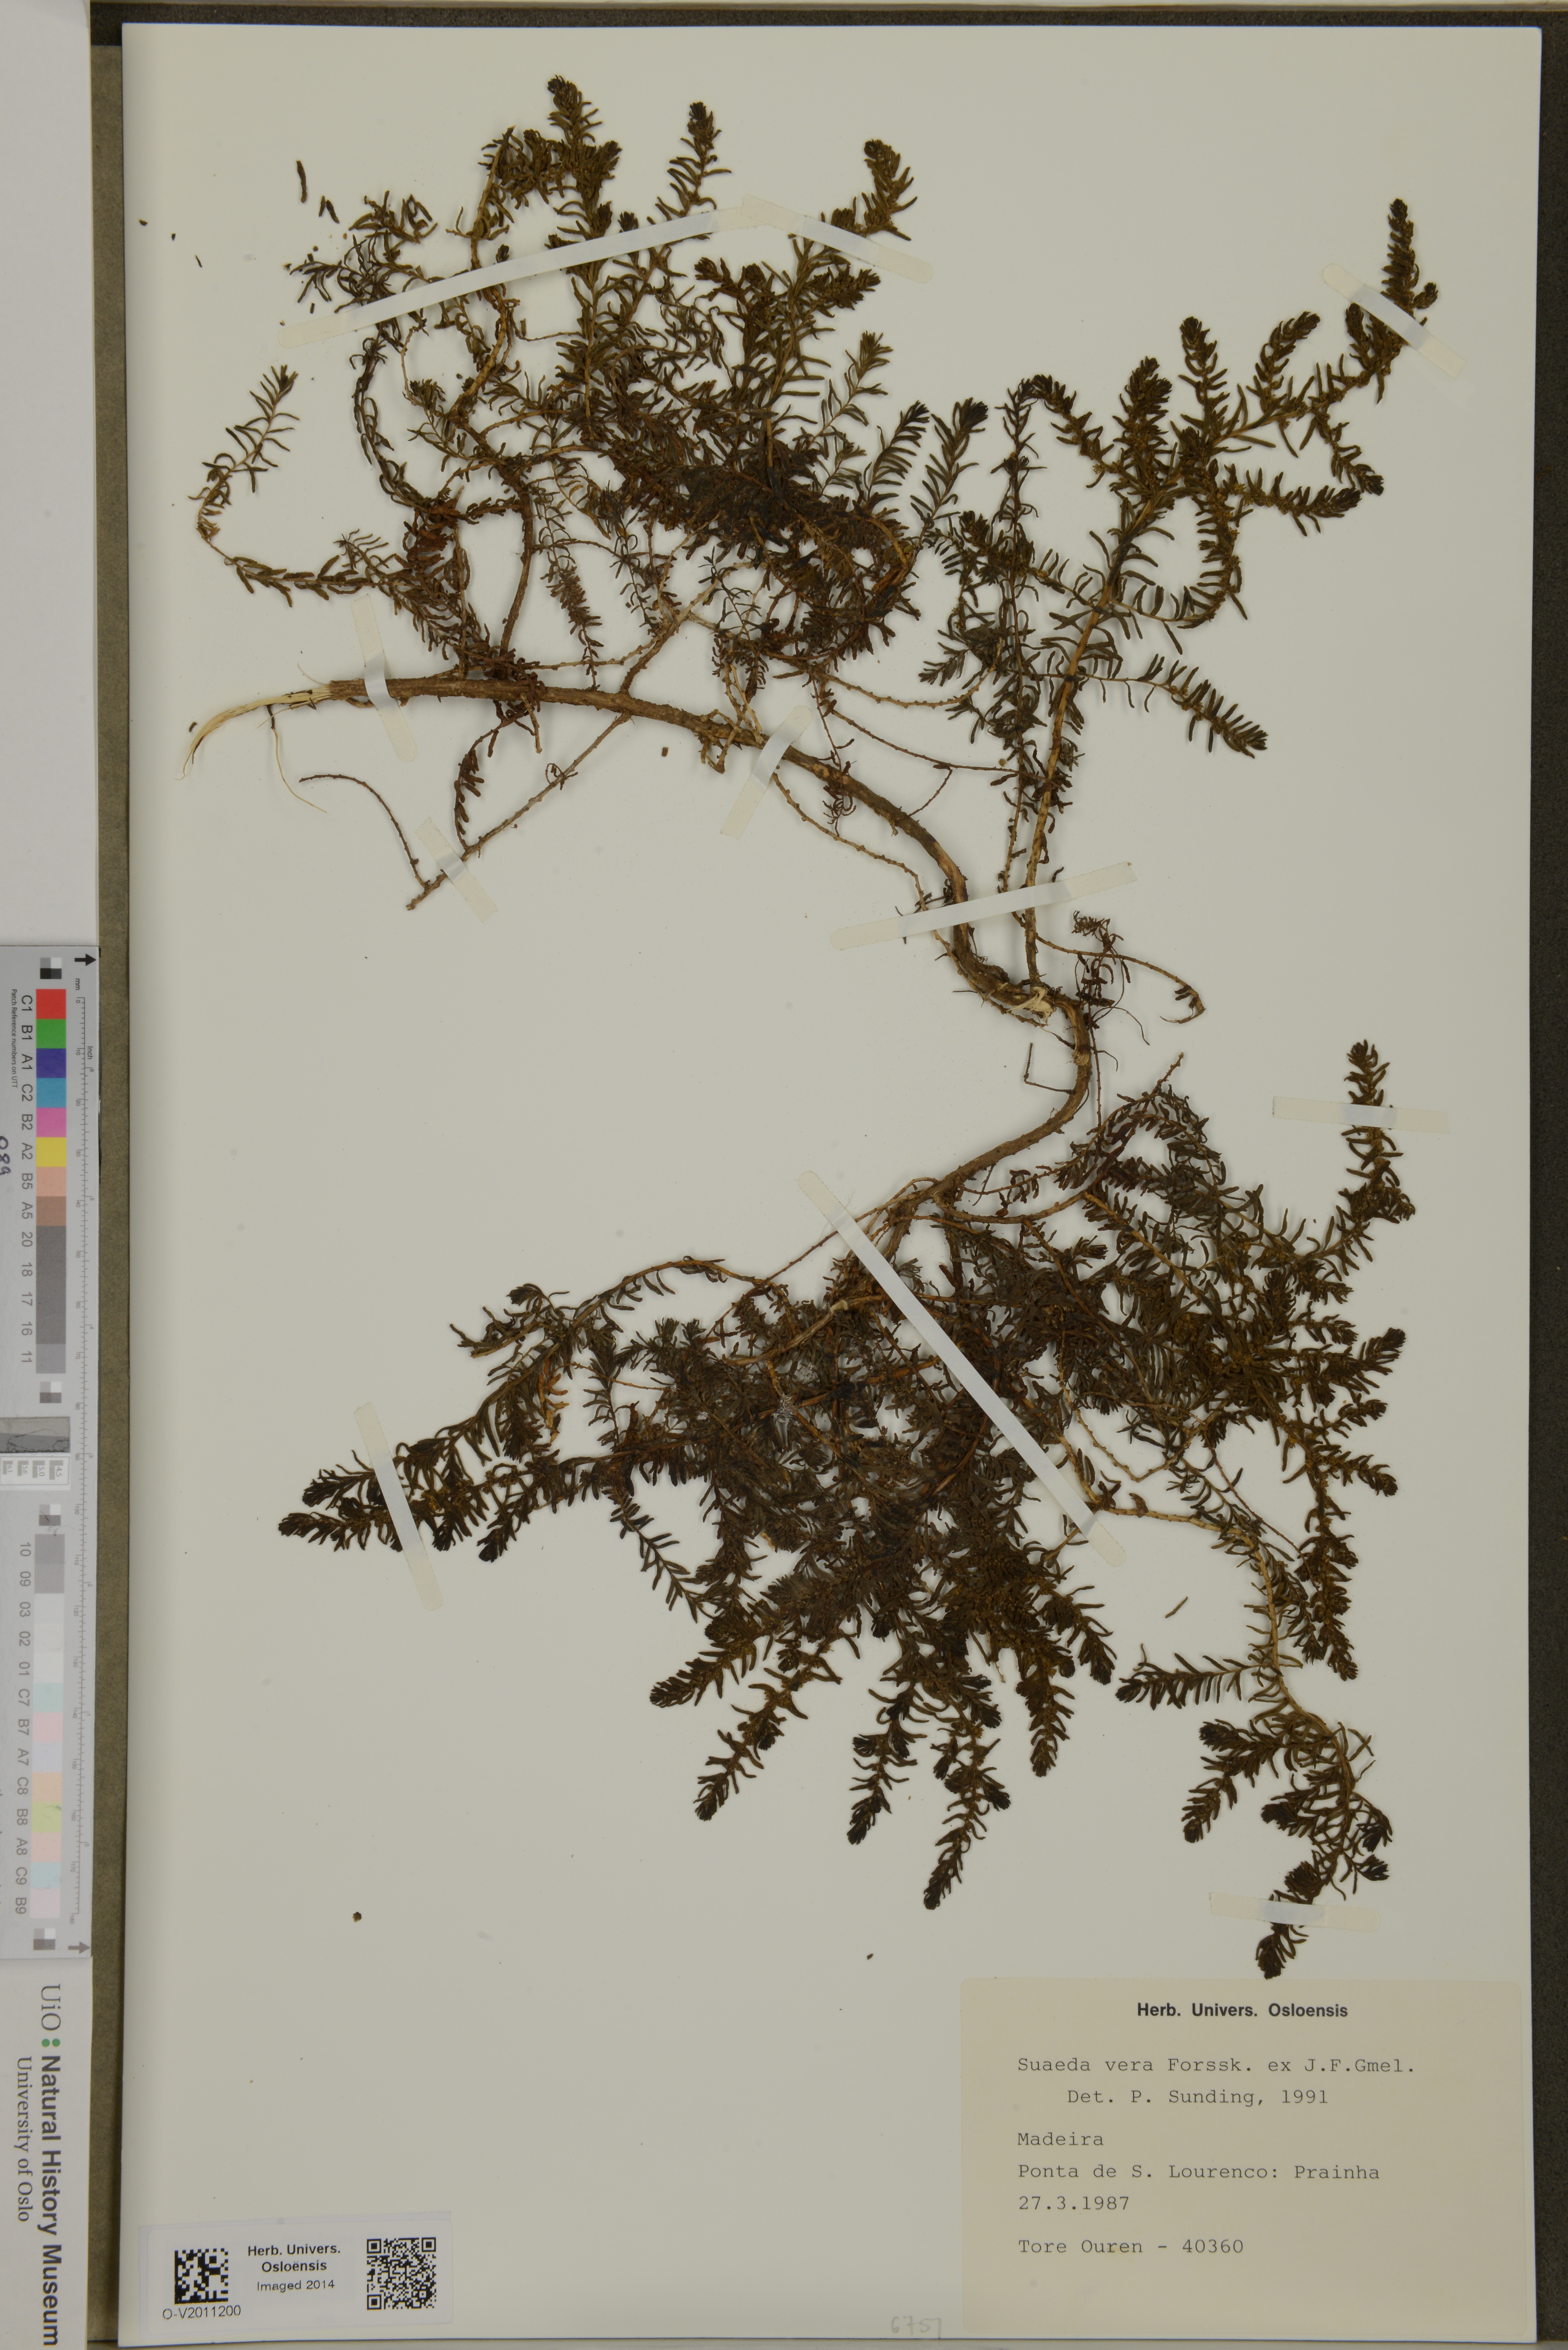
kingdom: Plantae
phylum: Tracheophyta
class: Magnoliopsida
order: Caryophyllales
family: Amaranthaceae
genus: Suaeda
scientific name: Suaeda vera
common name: Shrubby sea-blite
